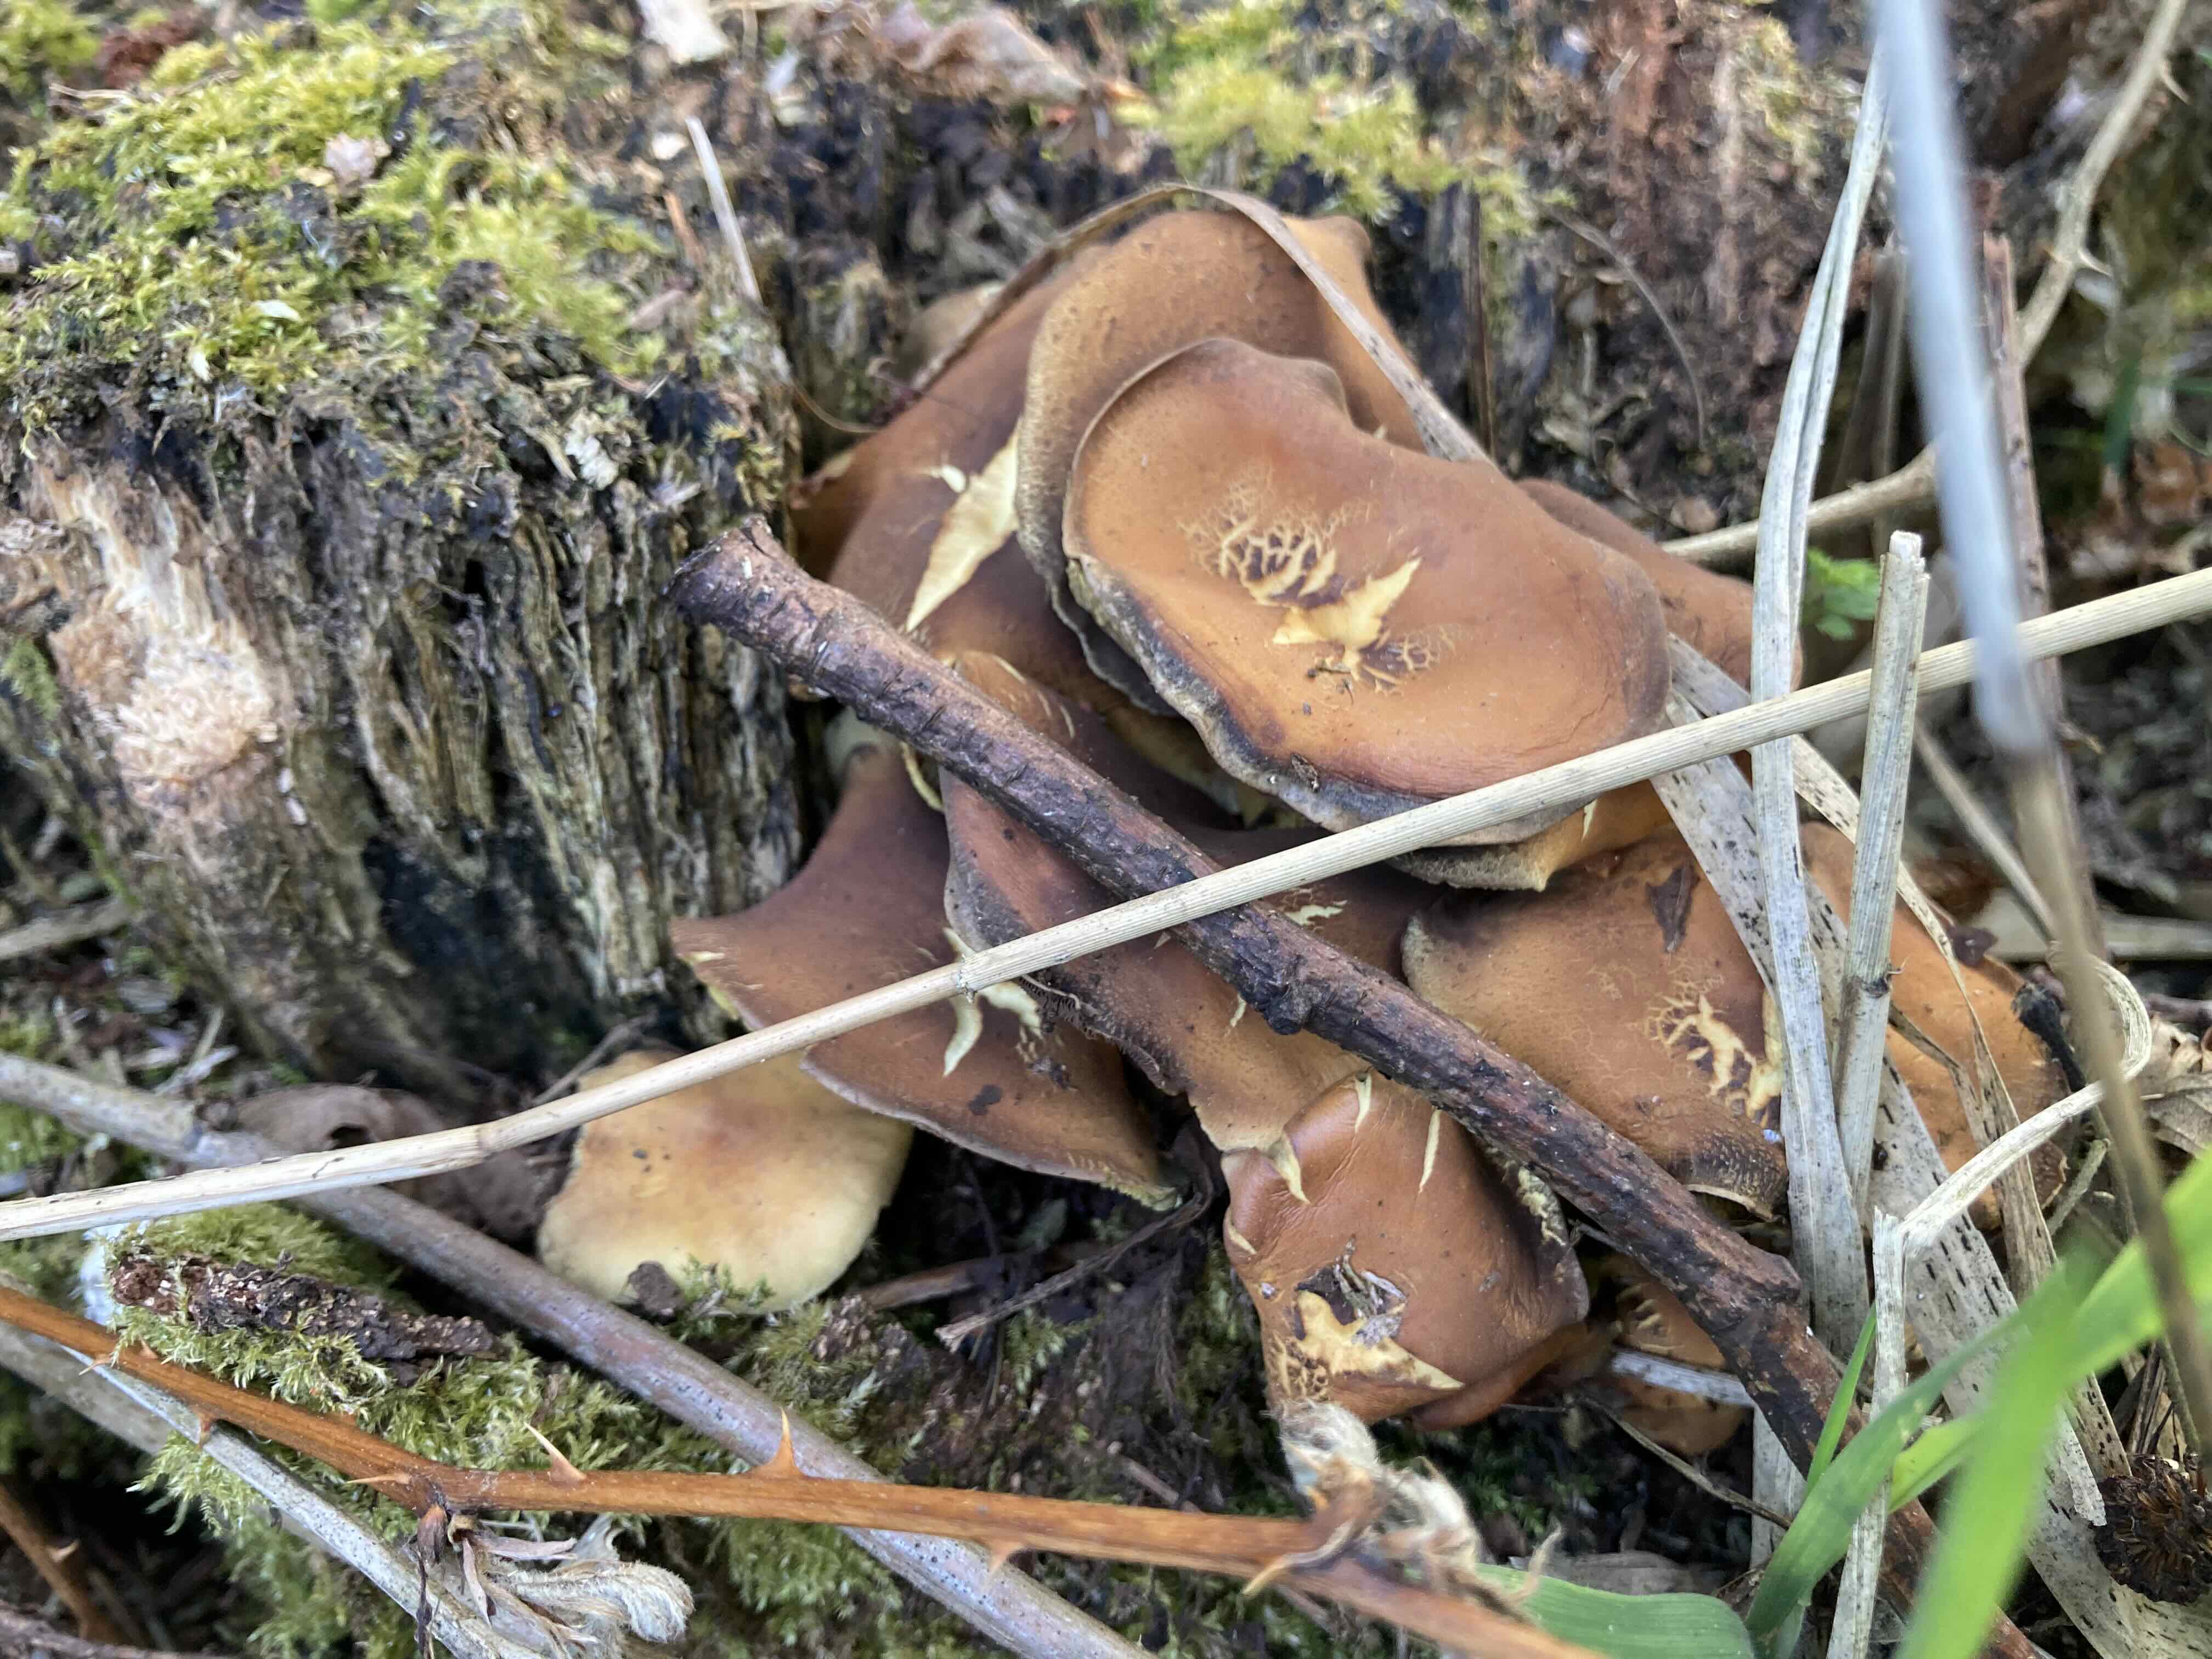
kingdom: Fungi
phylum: Basidiomycota
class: Agaricomycetes
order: Agaricales
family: Strophariaceae
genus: Hypholoma
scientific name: Hypholoma fasciculare
